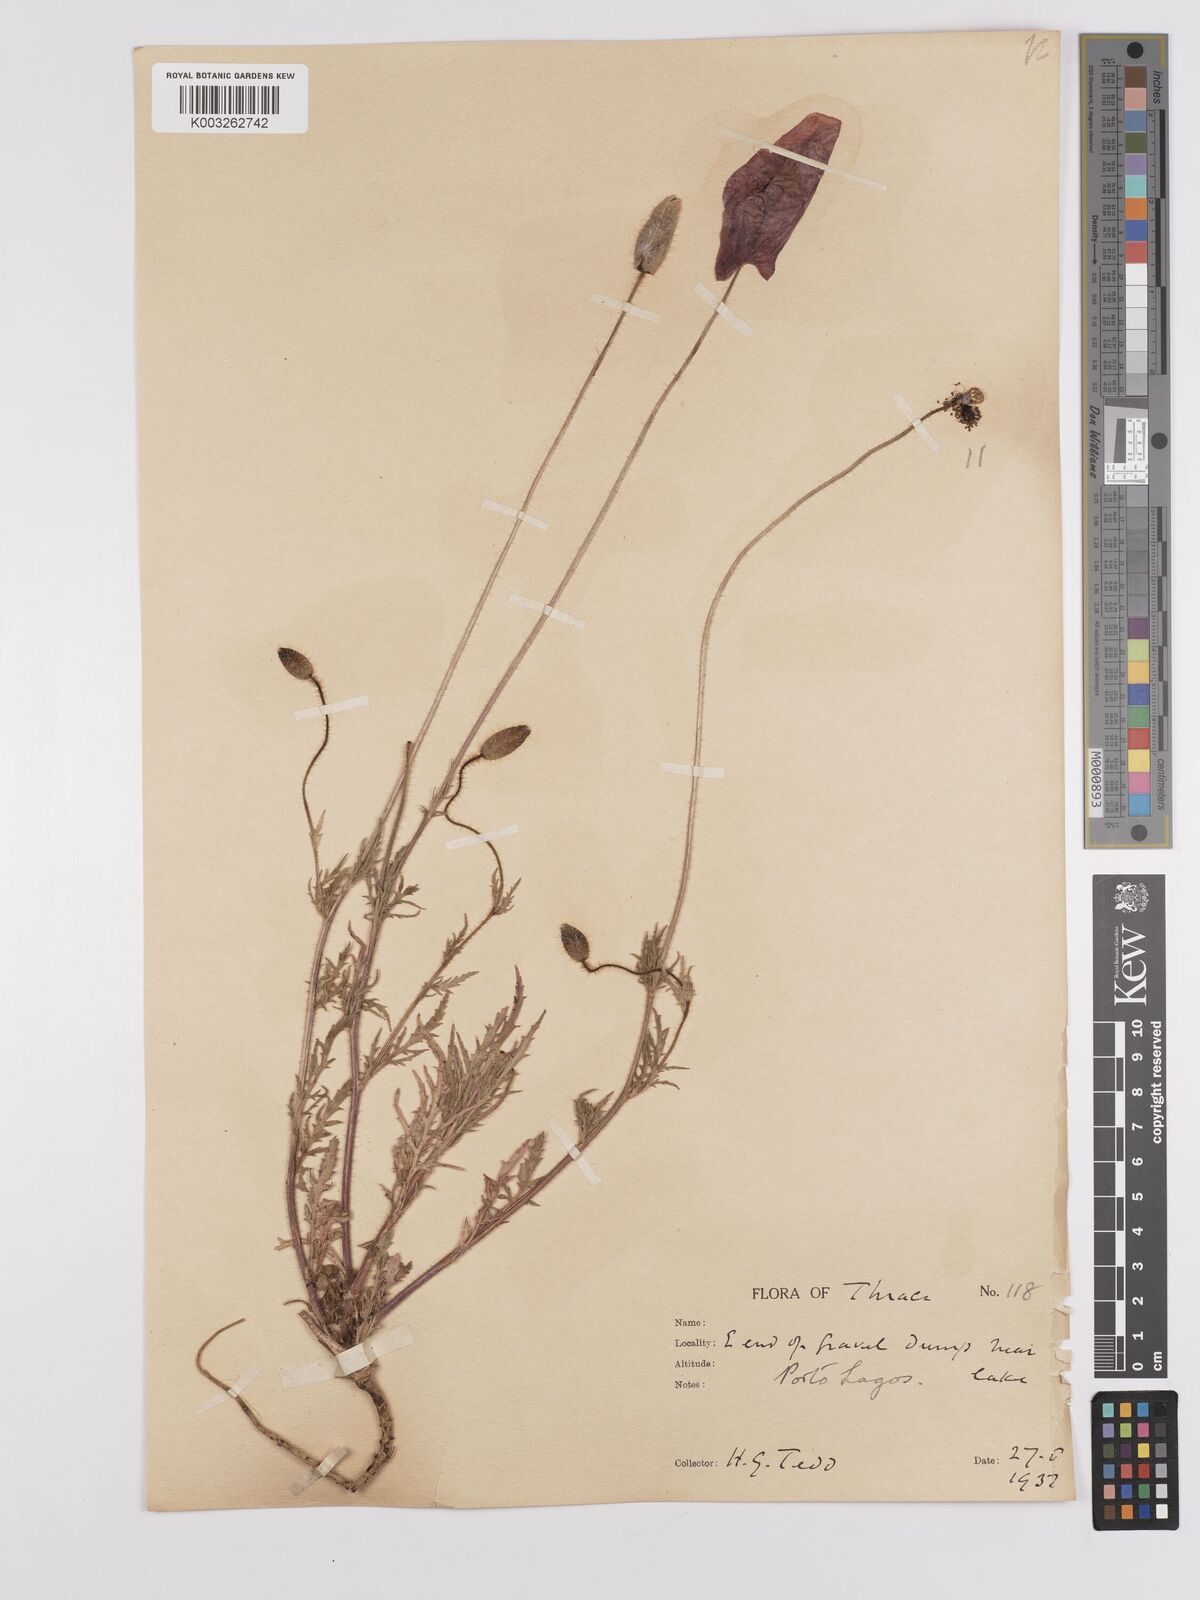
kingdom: Plantae
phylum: Tracheophyta
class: Magnoliopsida
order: Ranunculales
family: Papaveraceae
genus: Papaver
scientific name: Papaver
